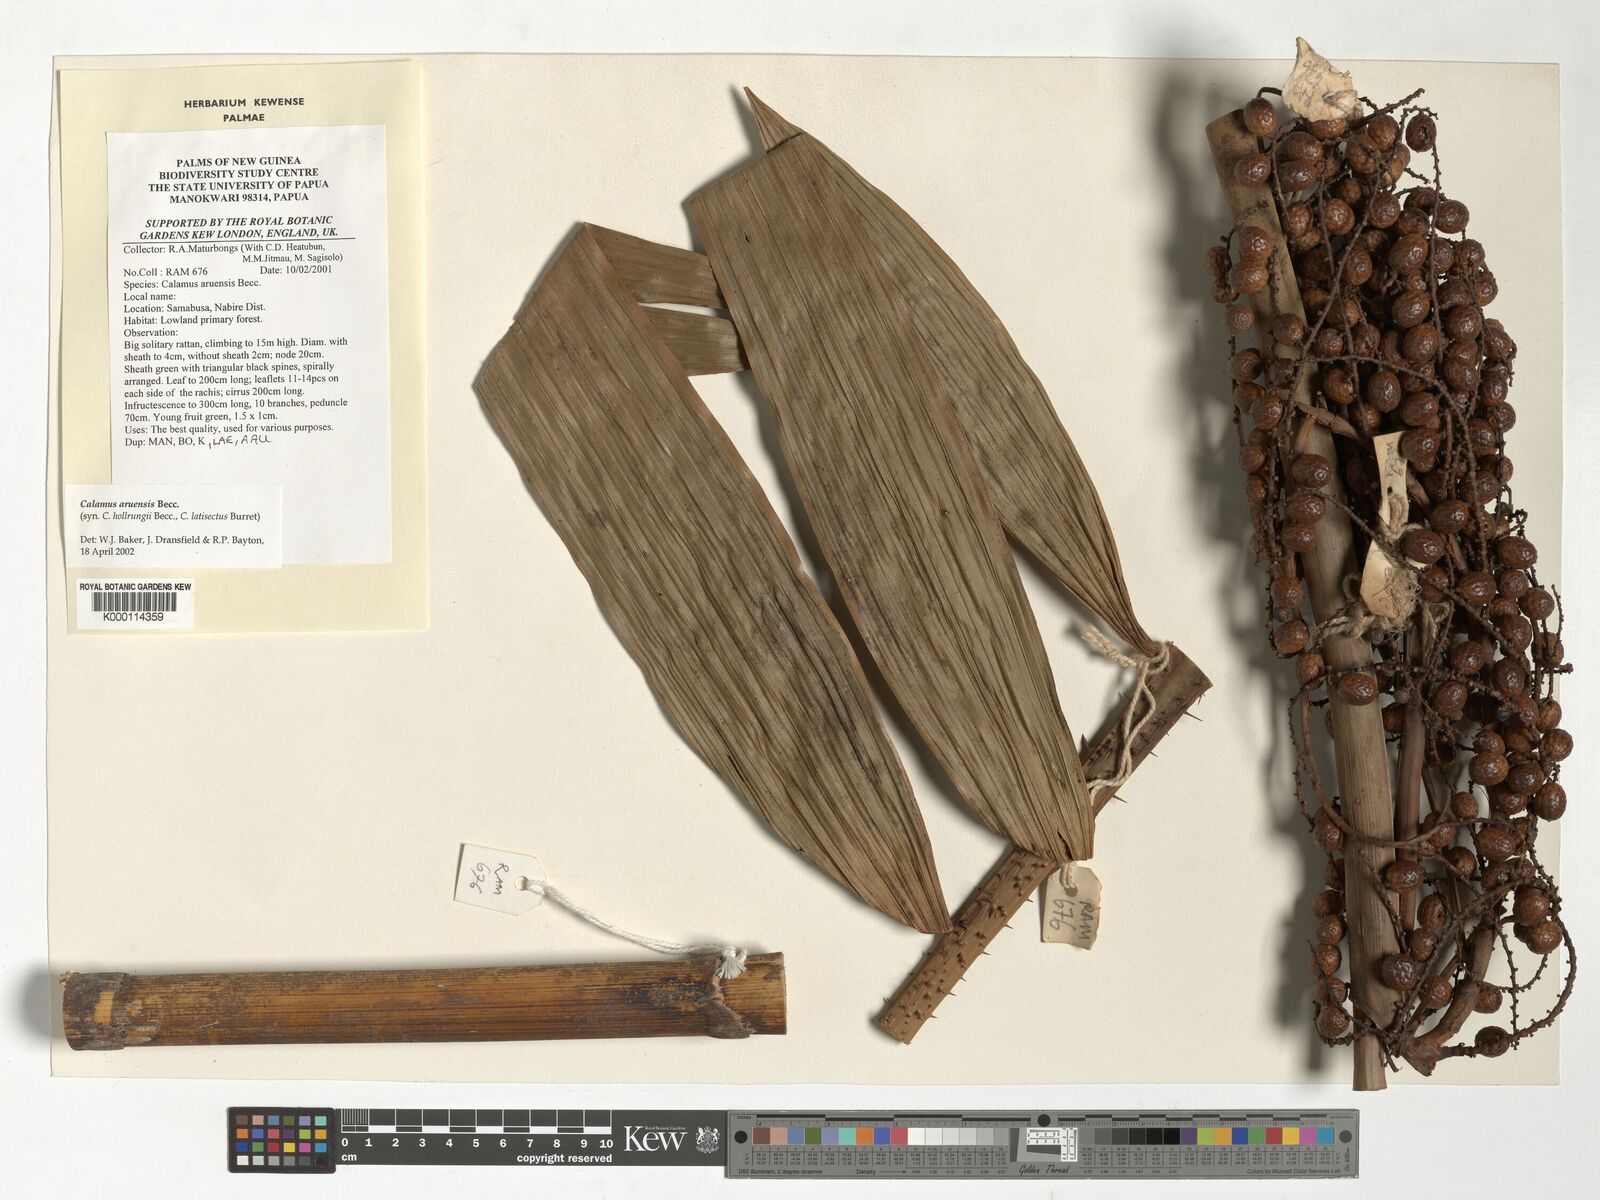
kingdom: Plantae
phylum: Tracheophyta
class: Liliopsida
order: Arecales
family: Arecaceae
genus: Calamus
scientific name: Calamus aruensis
